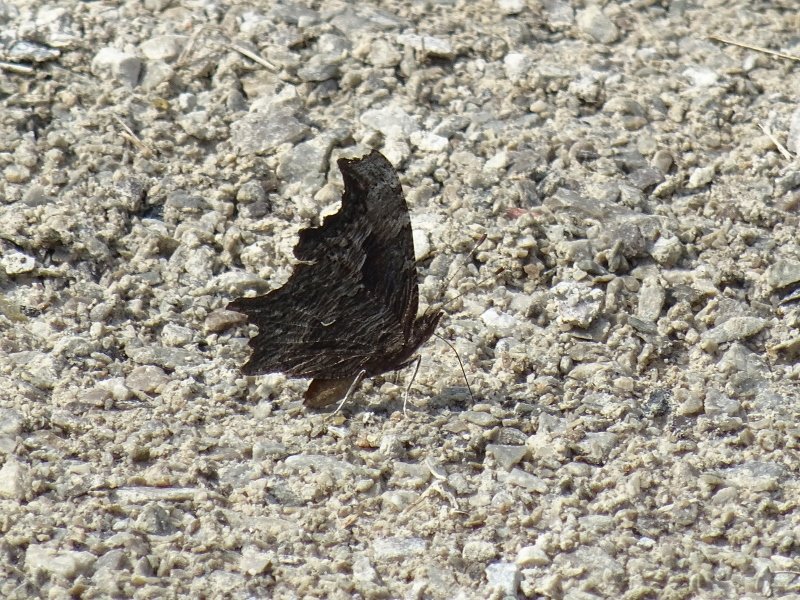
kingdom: Animalia
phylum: Arthropoda
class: Insecta
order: Lepidoptera
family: Nymphalidae
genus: Polygonia
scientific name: Polygonia progne
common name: Gray Comma
